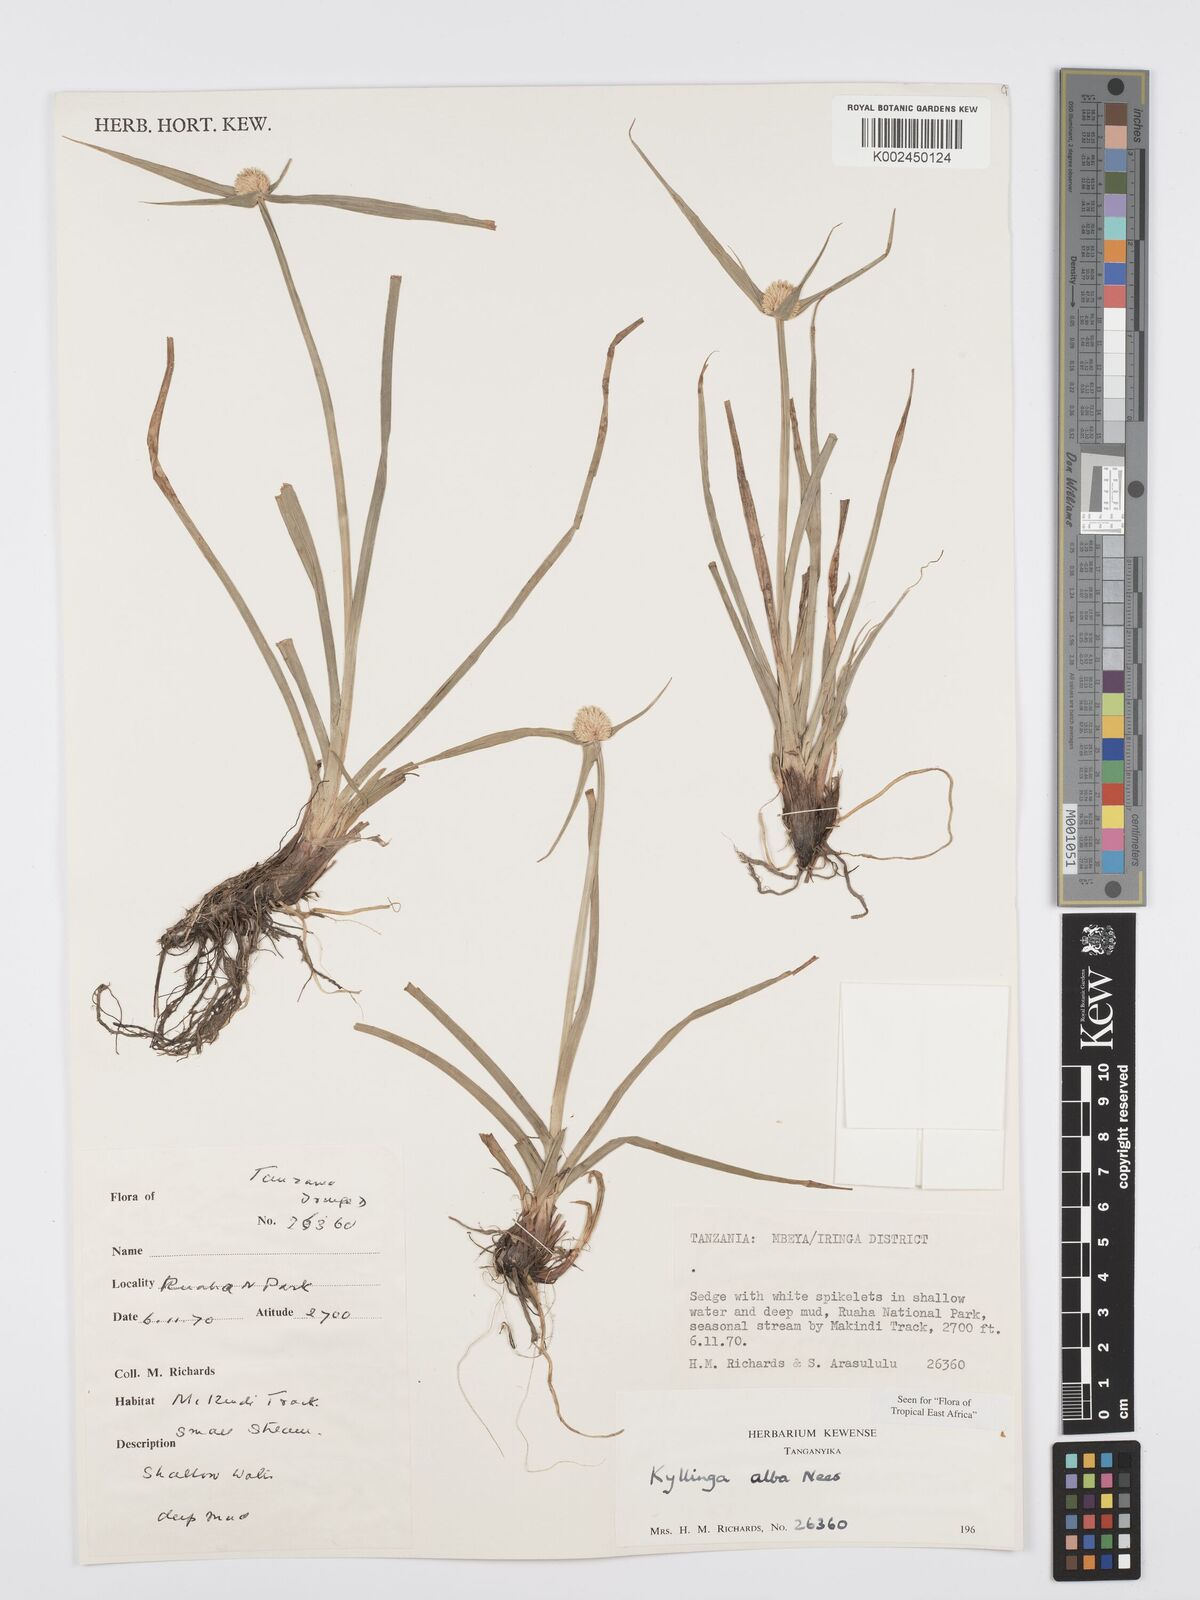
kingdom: Plantae
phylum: Tracheophyta
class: Liliopsida
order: Poales
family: Cyperaceae
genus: Cyperus
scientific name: Cyperus
